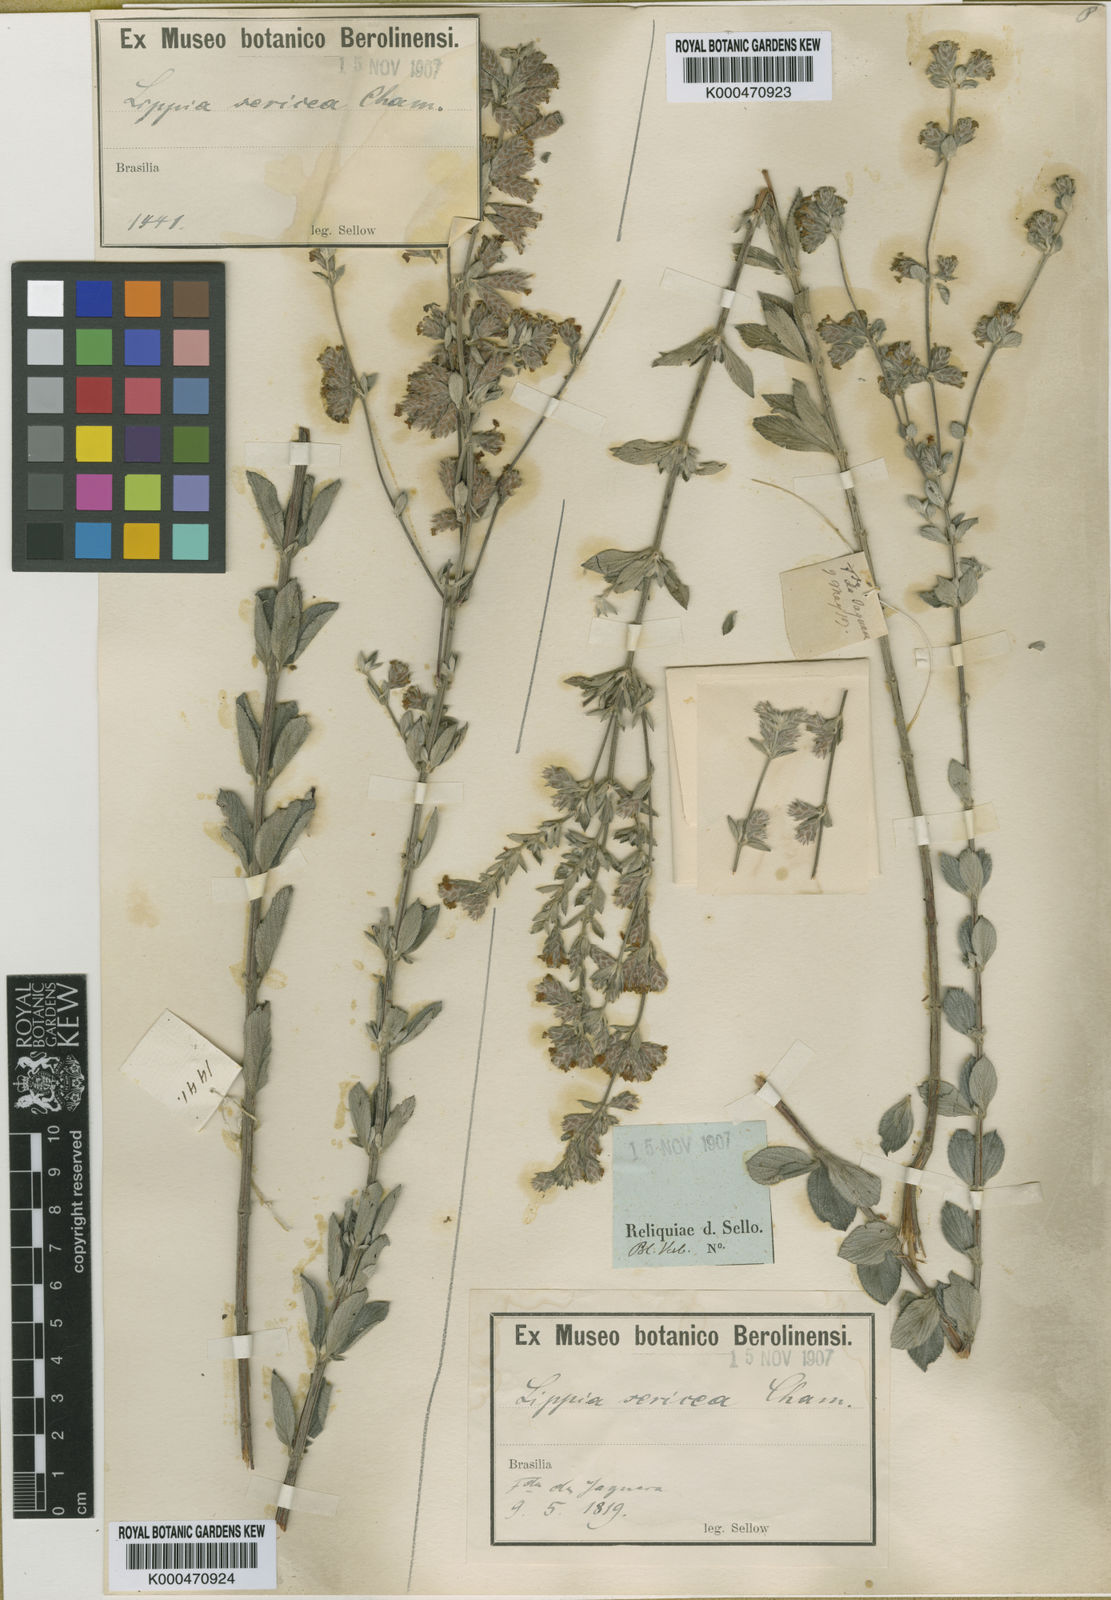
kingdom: Plantae
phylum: Tracheophyta
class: Magnoliopsida
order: Lamiales
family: Verbenaceae
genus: Lippia
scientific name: Lippia sericea
